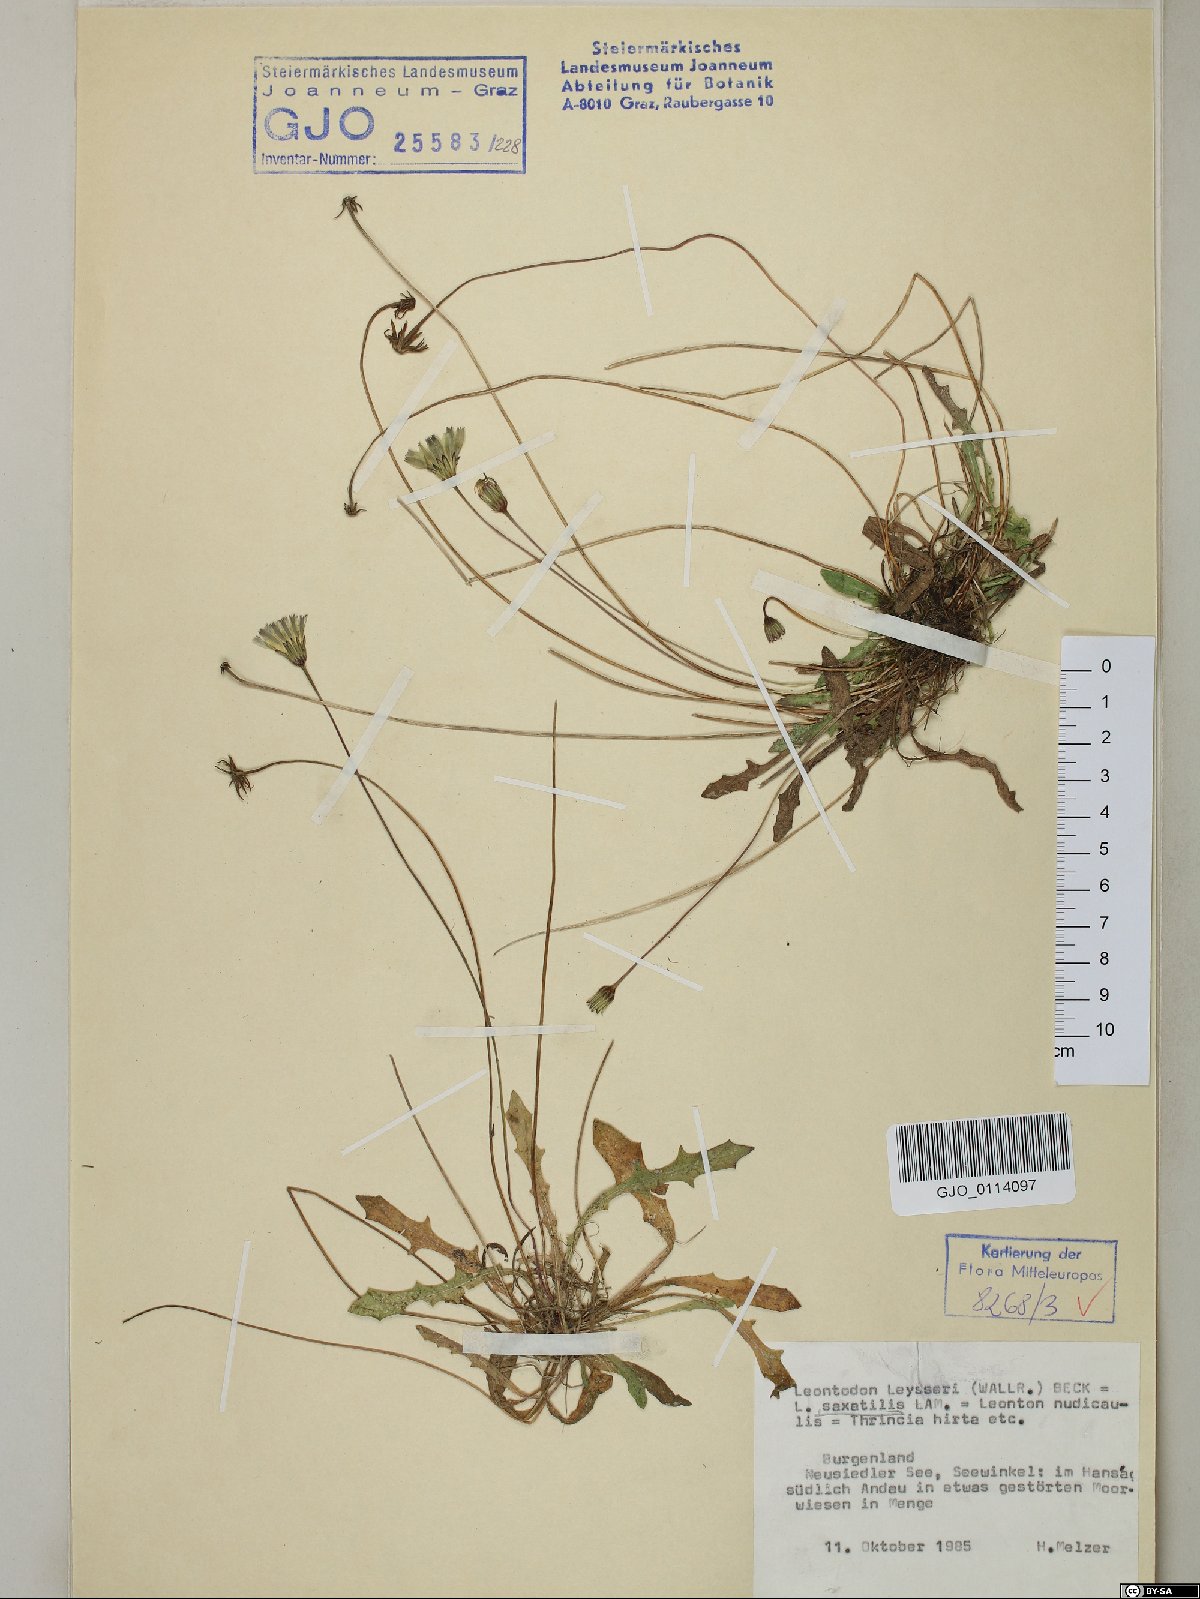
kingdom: Plantae
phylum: Tracheophyta
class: Magnoliopsida
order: Asterales
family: Asteraceae
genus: Thrincia
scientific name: Thrincia saxatilis
